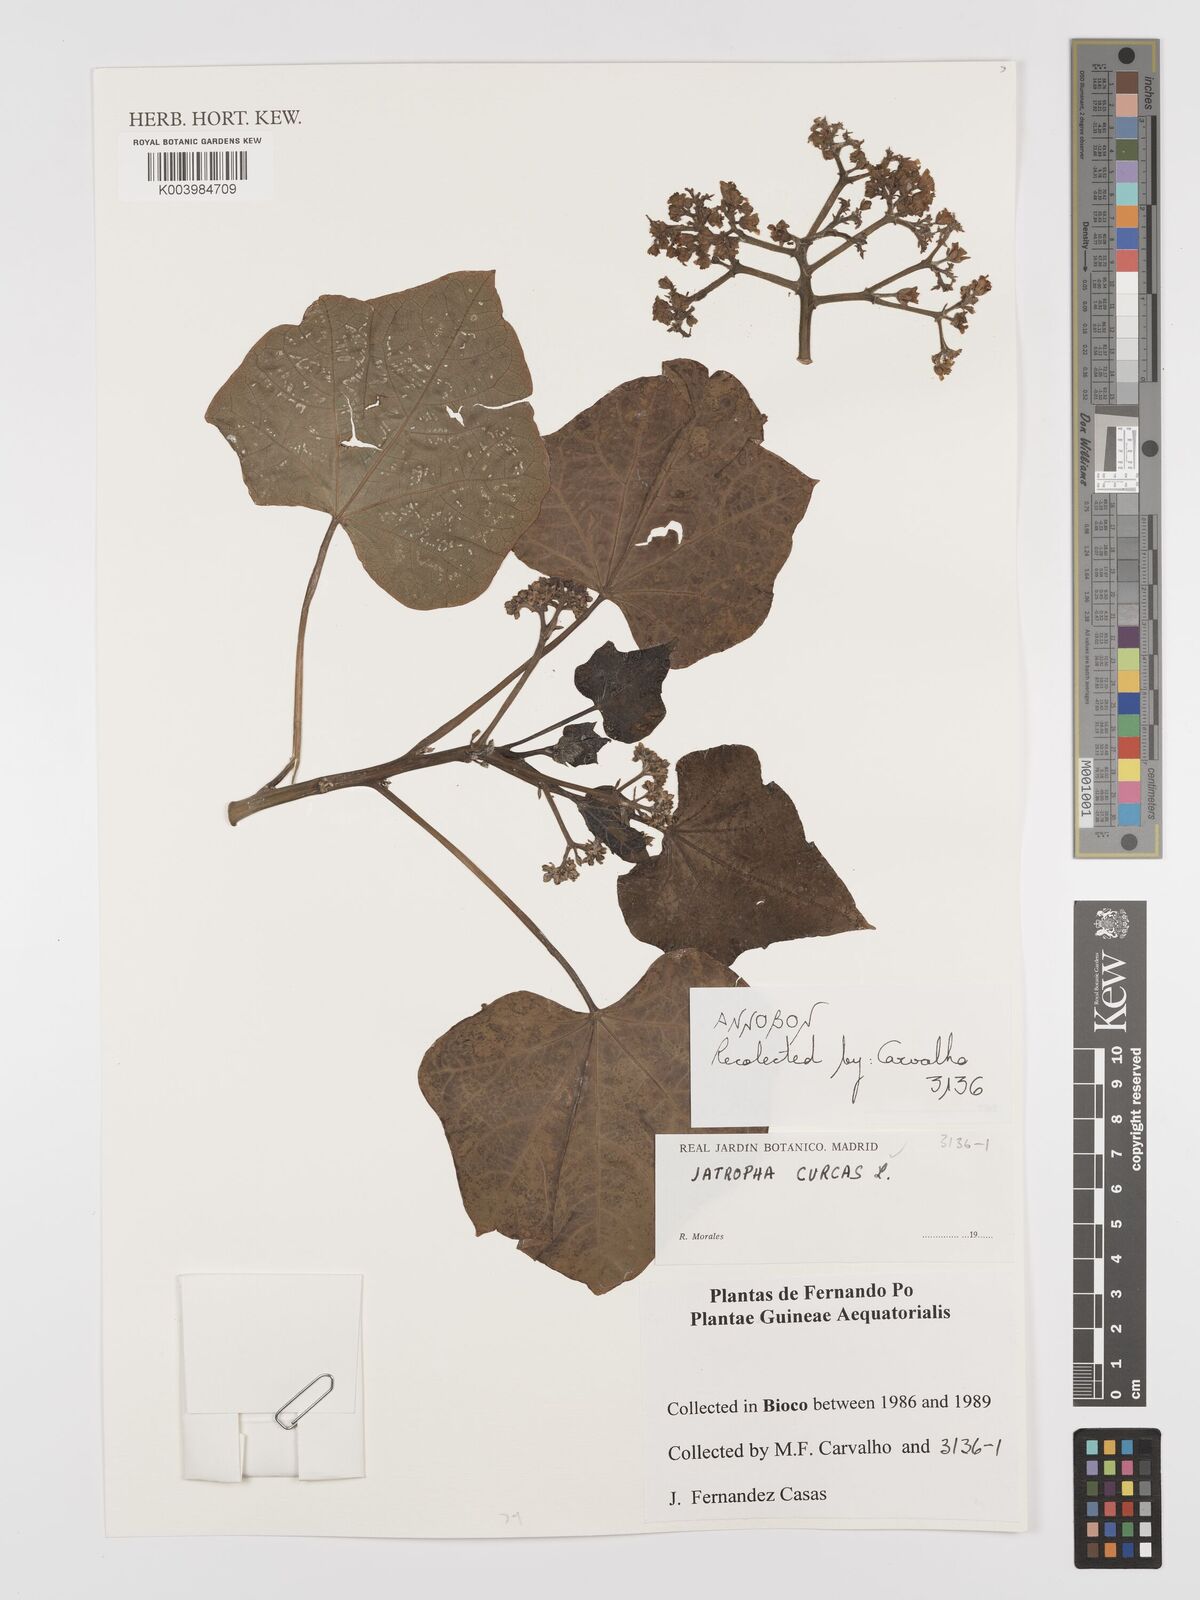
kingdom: Plantae
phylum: Tracheophyta
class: Magnoliopsida
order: Malpighiales
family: Euphorbiaceae
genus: Jatropha
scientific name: Jatropha curcas
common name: Barbados nut
